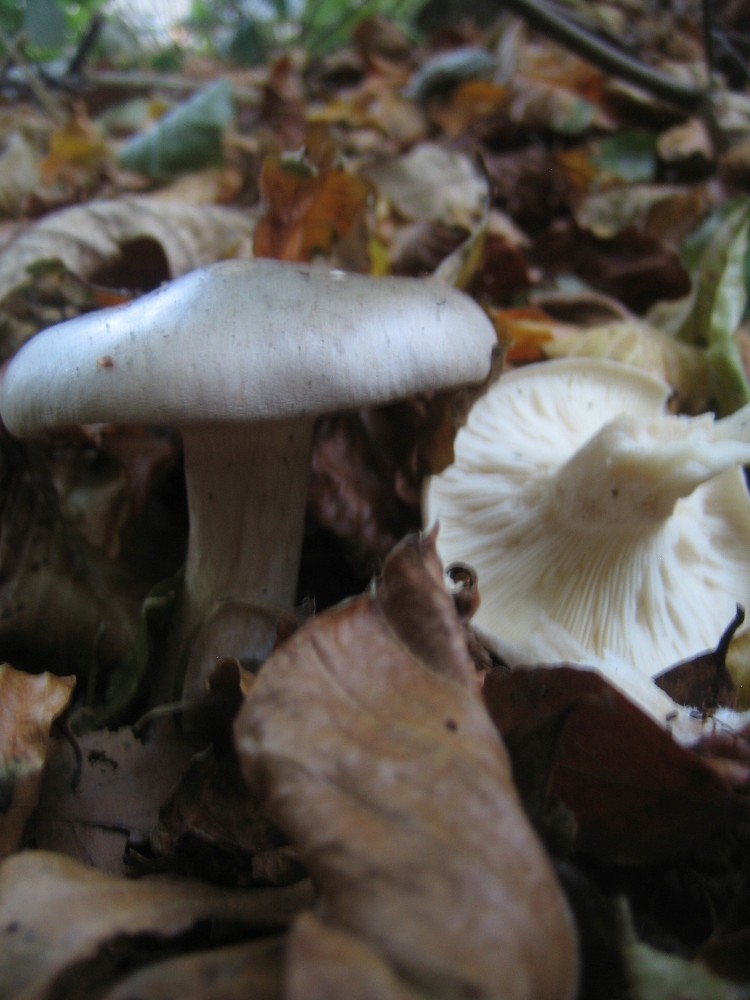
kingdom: Fungi
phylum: Basidiomycota
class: Agaricomycetes
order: Agaricales
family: Tricholomataceae
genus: Clitocybe
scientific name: Clitocybe nebularis
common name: tåge-tragthat
